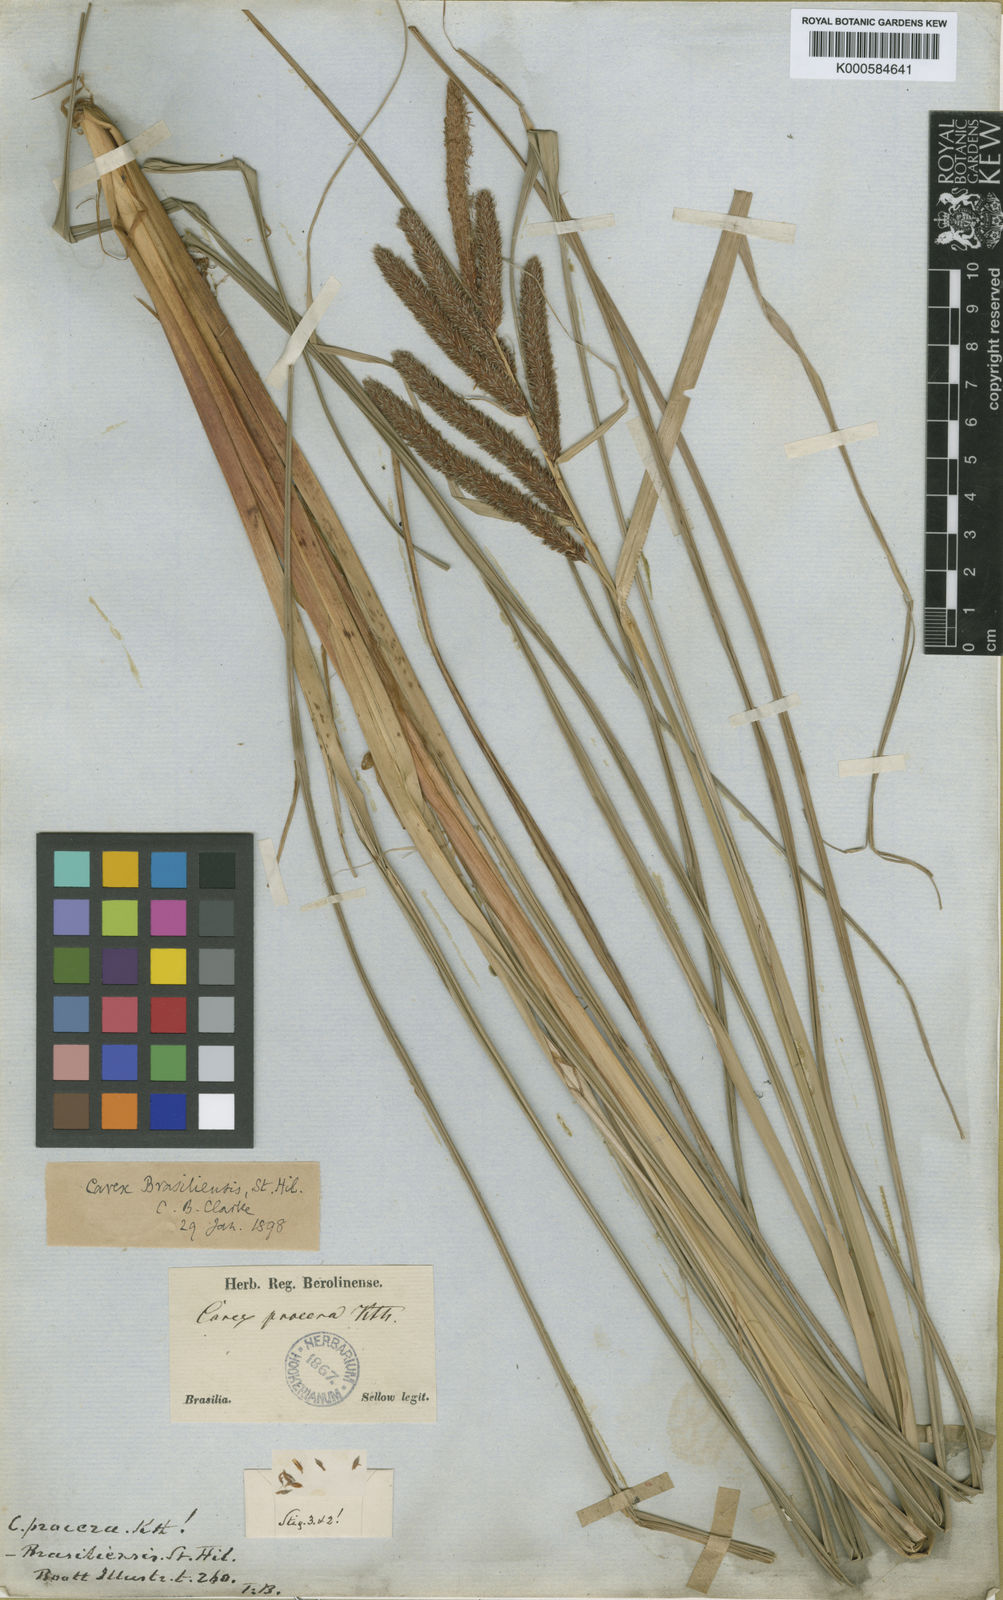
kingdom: Plantae
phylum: Tracheophyta
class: Liliopsida
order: Poales
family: Cyperaceae
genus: Carex
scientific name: Carex brasiliensis
